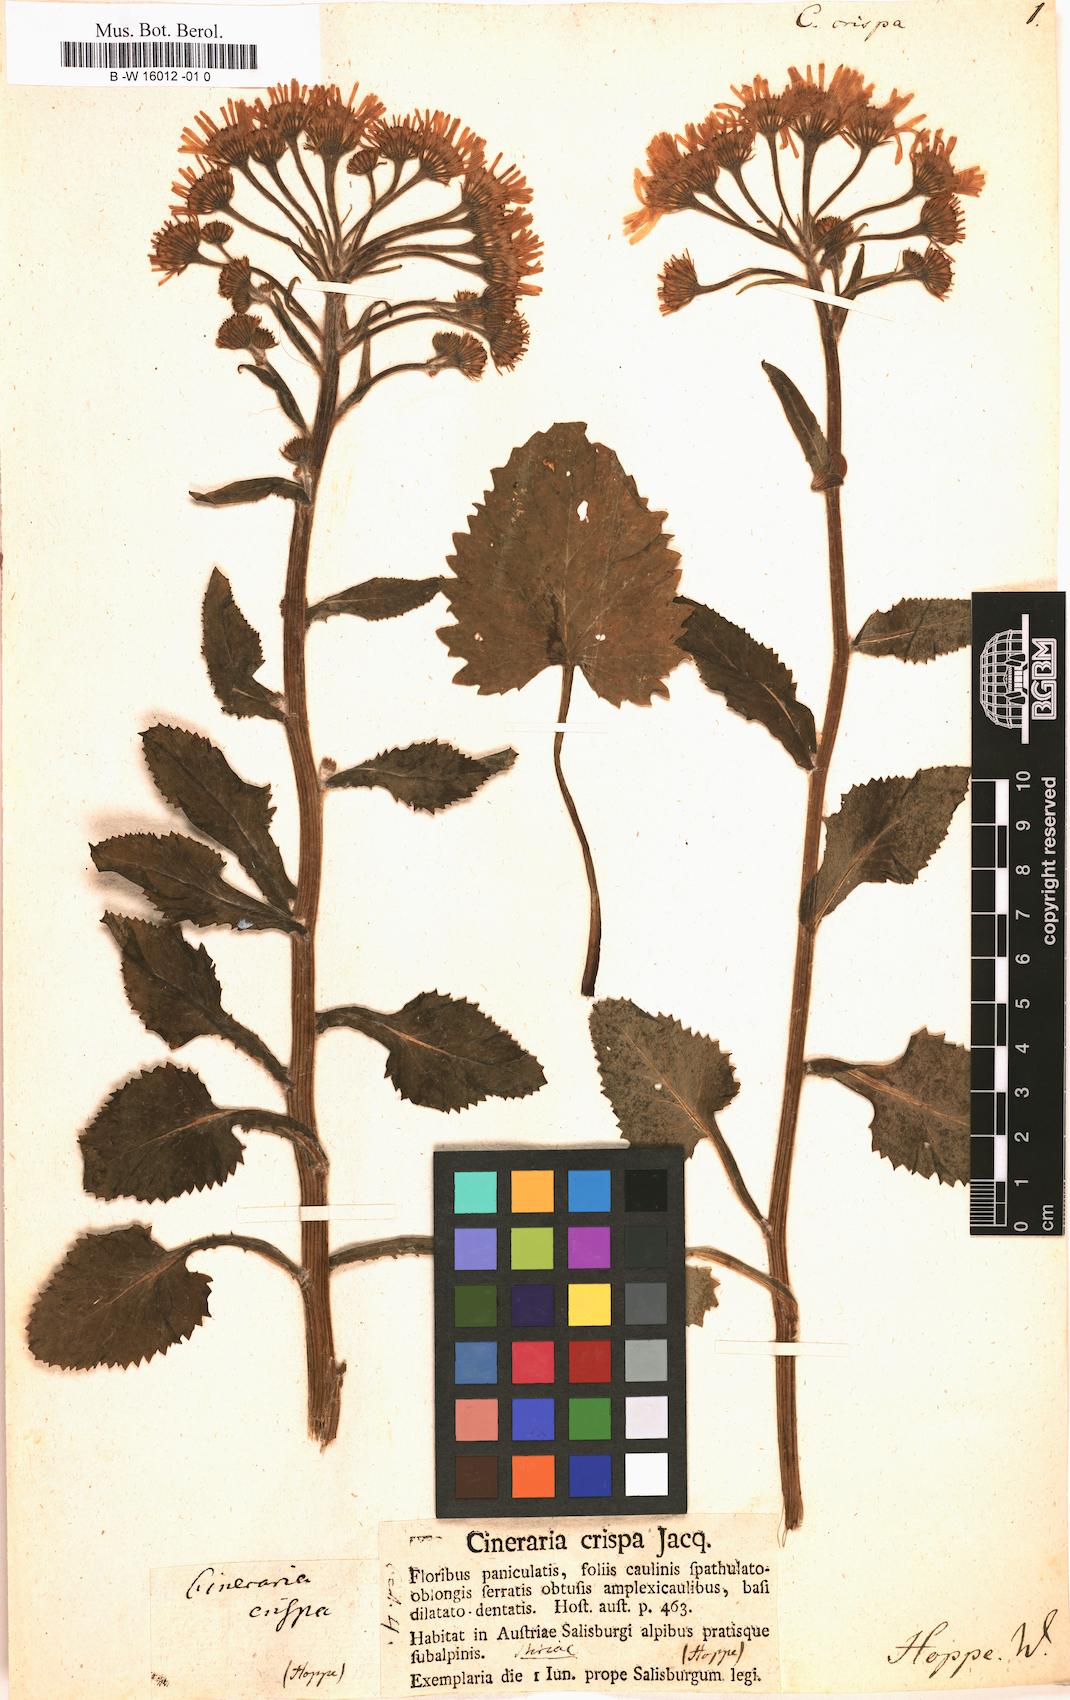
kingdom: Plantae
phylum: Tracheophyta
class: Magnoliopsida
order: Asterales
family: Asteraceae
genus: Tephroseris
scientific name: Tephroseris crispa
